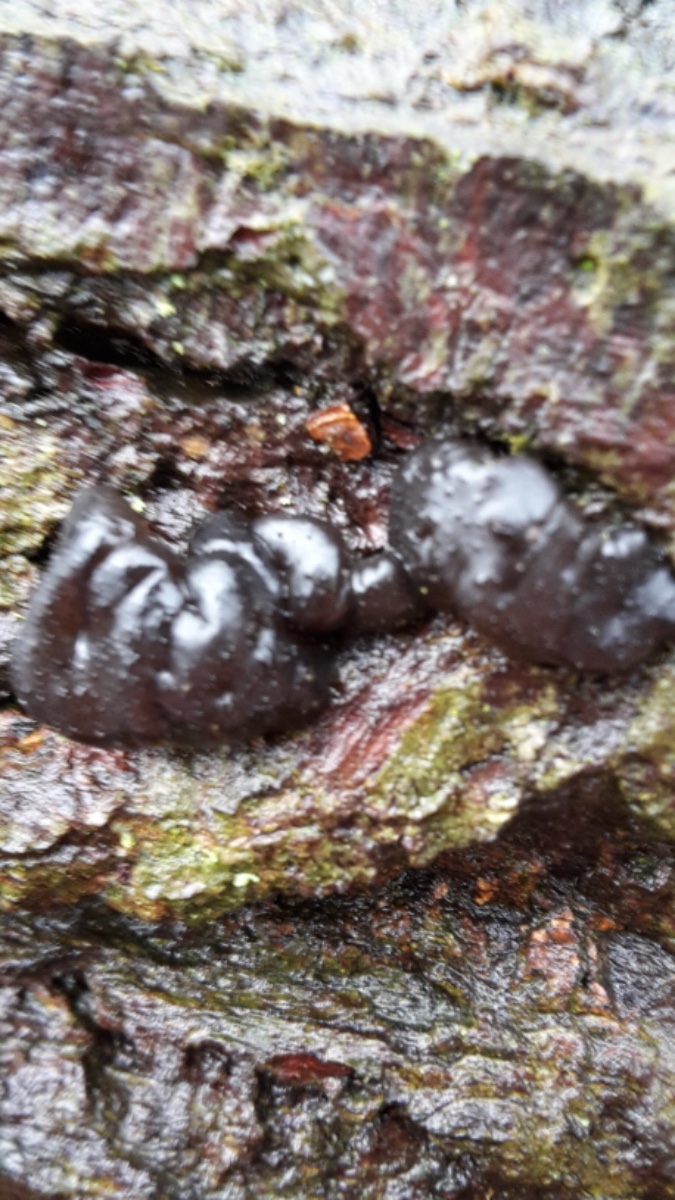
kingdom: Fungi
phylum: Basidiomycota
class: Agaricomycetes
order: Auriculariales
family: Auriculariaceae
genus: Exidia
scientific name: Exidia nigricans
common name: almindelig bævretop
